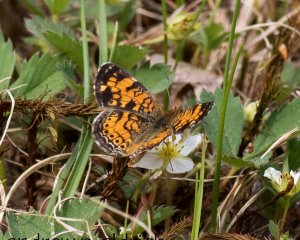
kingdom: Animalia
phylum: Arthropoda
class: Insecta
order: Lepidoptera
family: Nymphalidae
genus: Phyciodes
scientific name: Phyciodes
